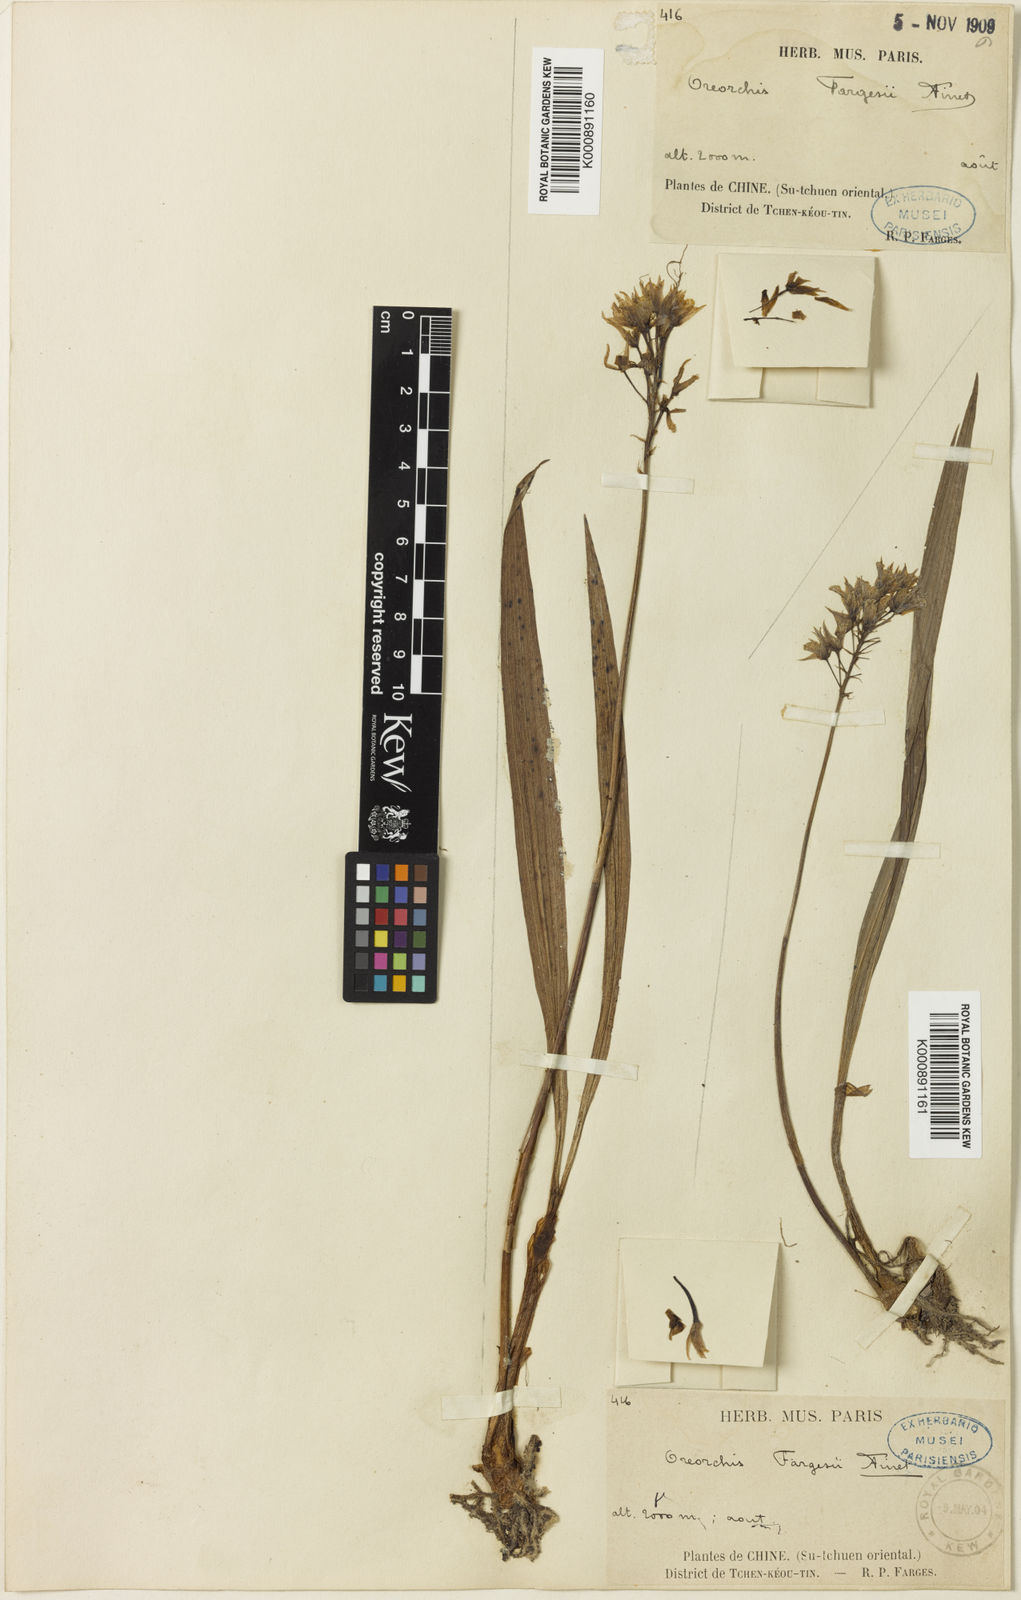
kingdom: Plantae
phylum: Tracheophyta
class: Liliopsida
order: Asparagales
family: Orchidaceae
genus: Oreorchis
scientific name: Oreorchis fargesii
